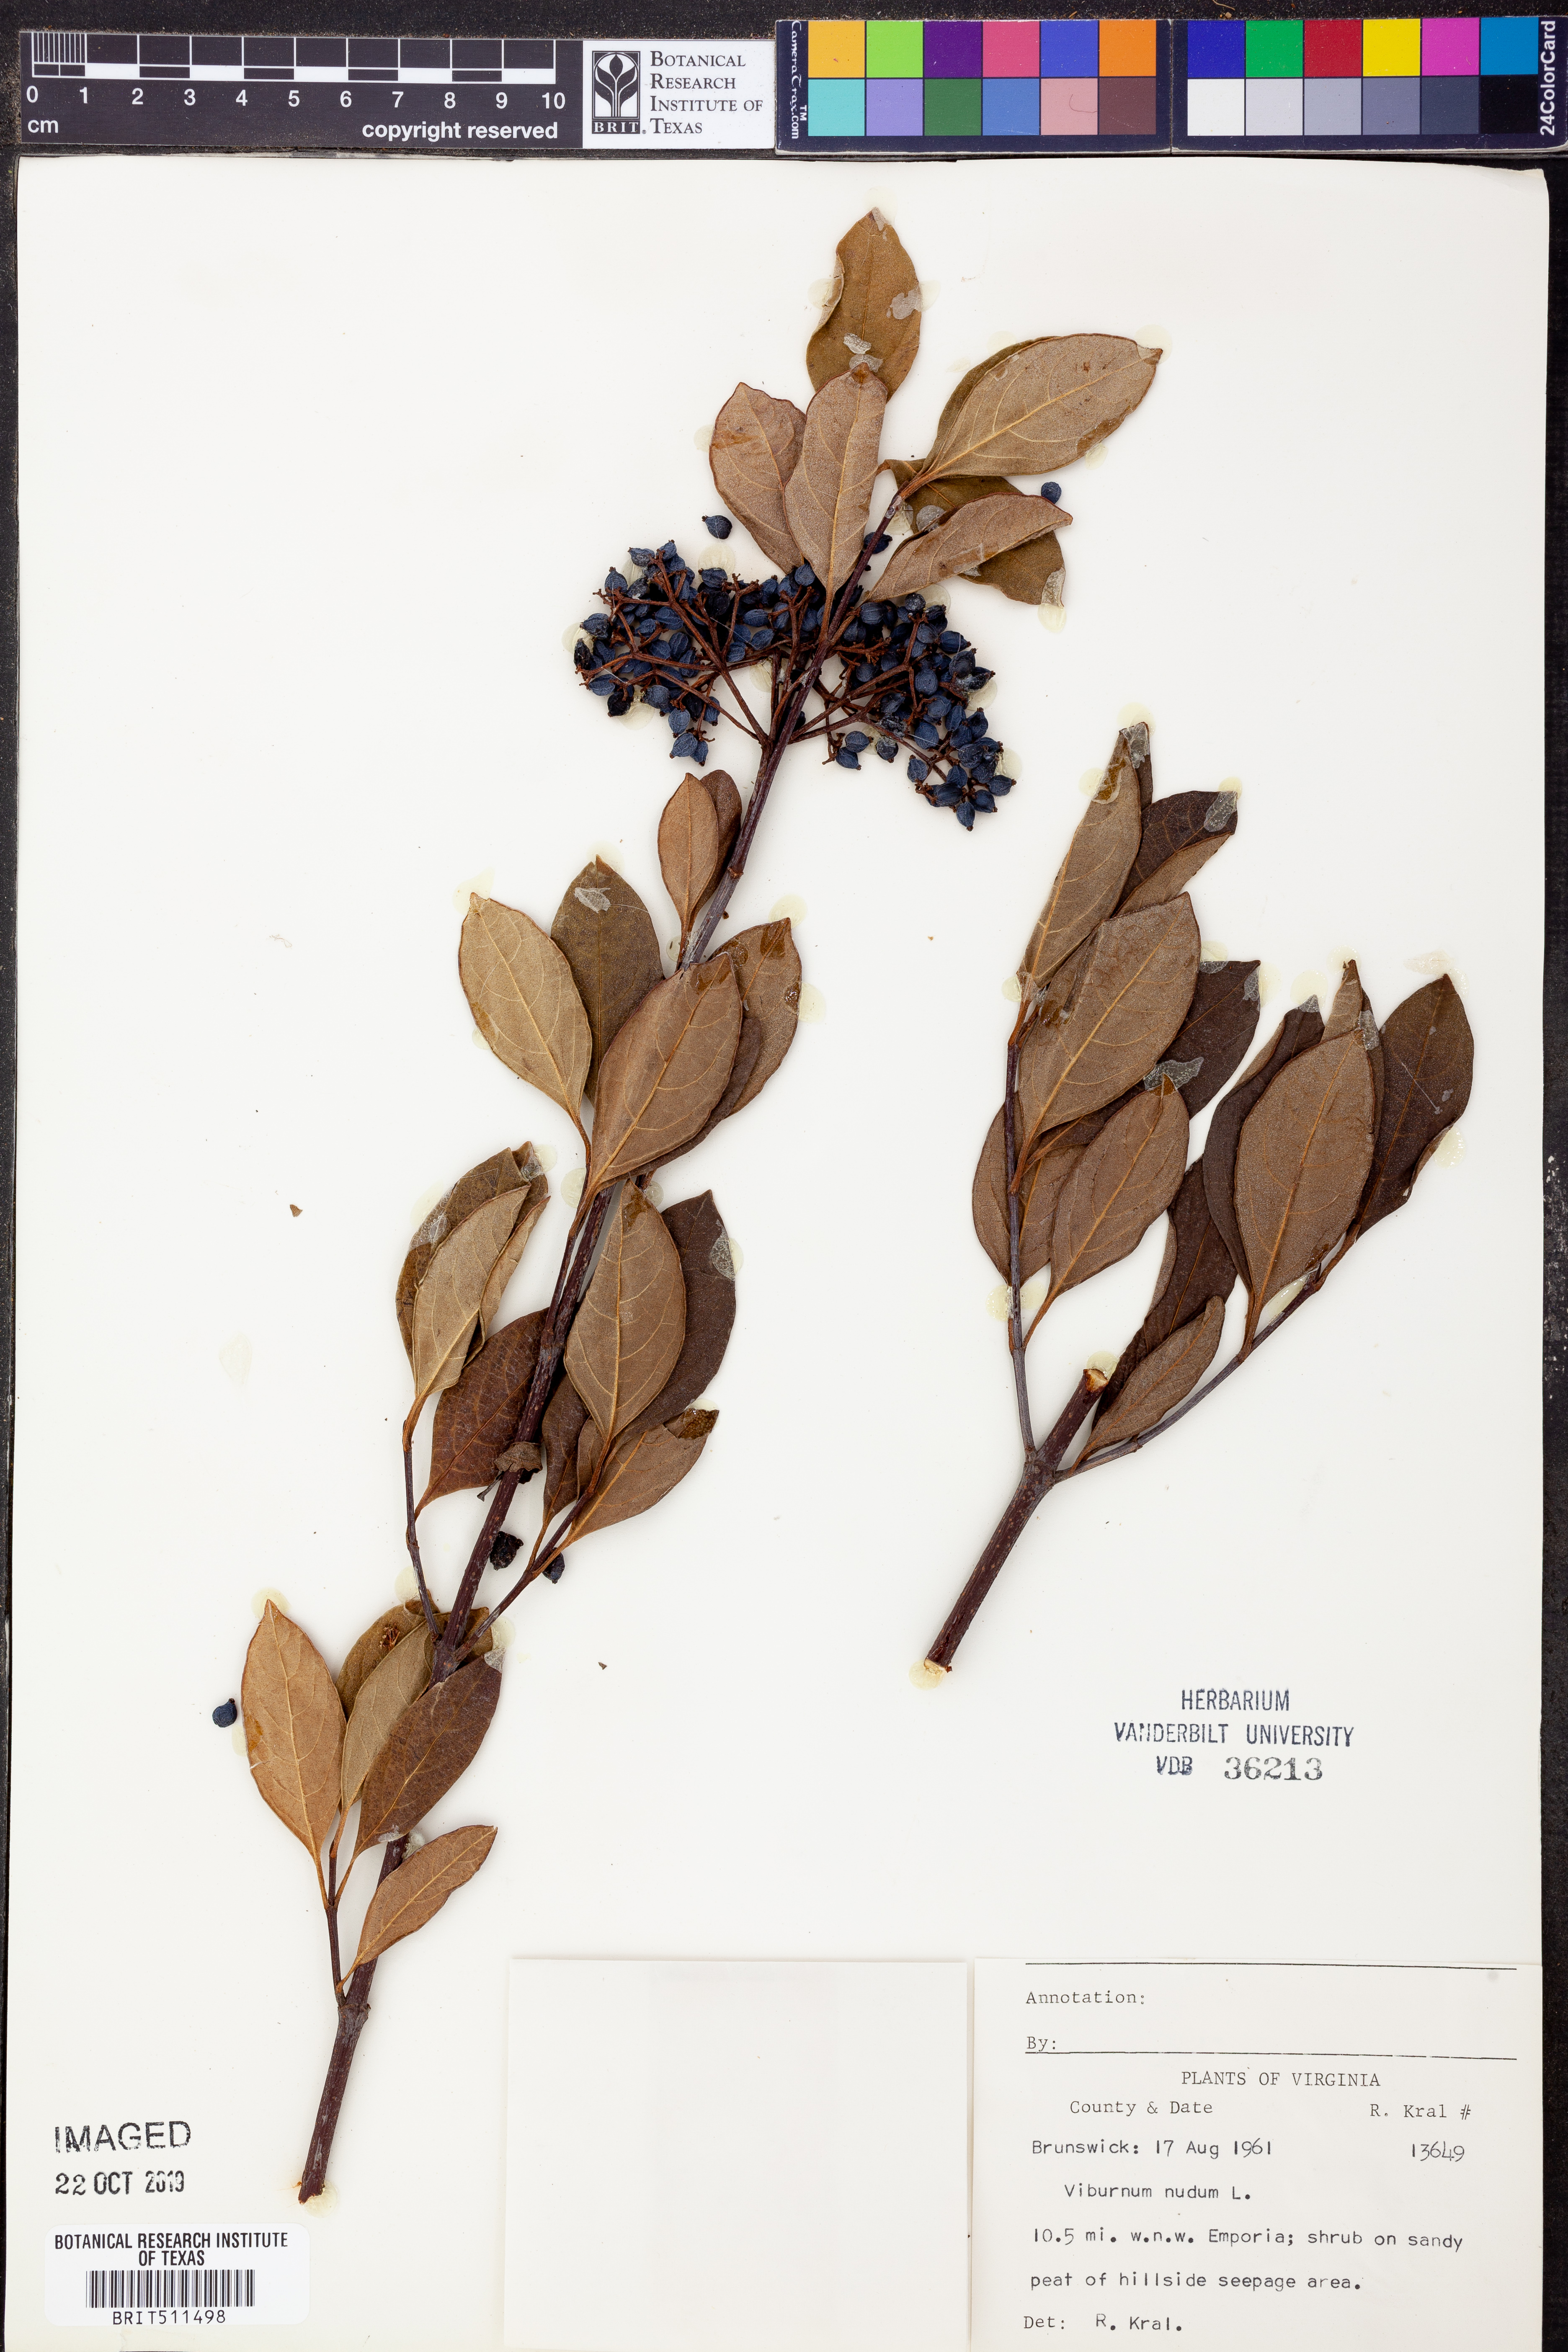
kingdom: Plantae
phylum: Tracheophyta
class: Magnoliopsida
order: Dipsacales
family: Viburnaceae
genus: Viburnum
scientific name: Viburnum nudum
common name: Possum haw
